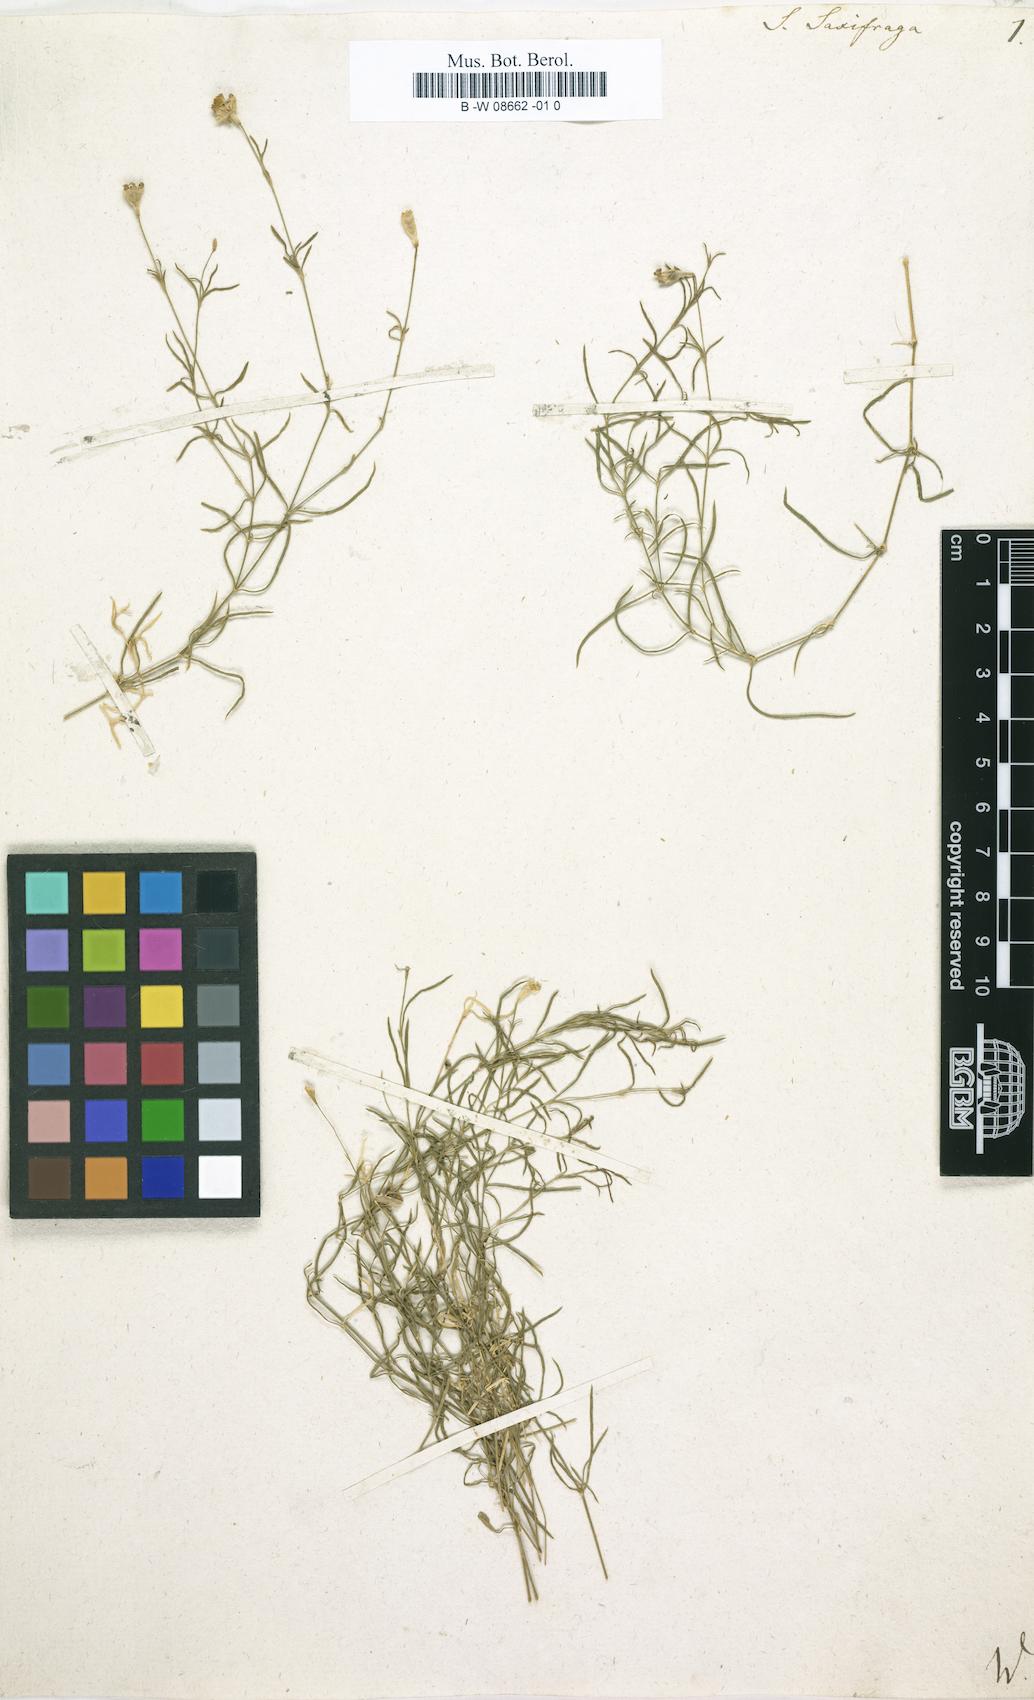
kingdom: Plantae
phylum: Tracheophyta
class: Magnoliopsida
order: Caryophyllales
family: Caryophyllaceae
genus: Silene
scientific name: Silene saxifraga
